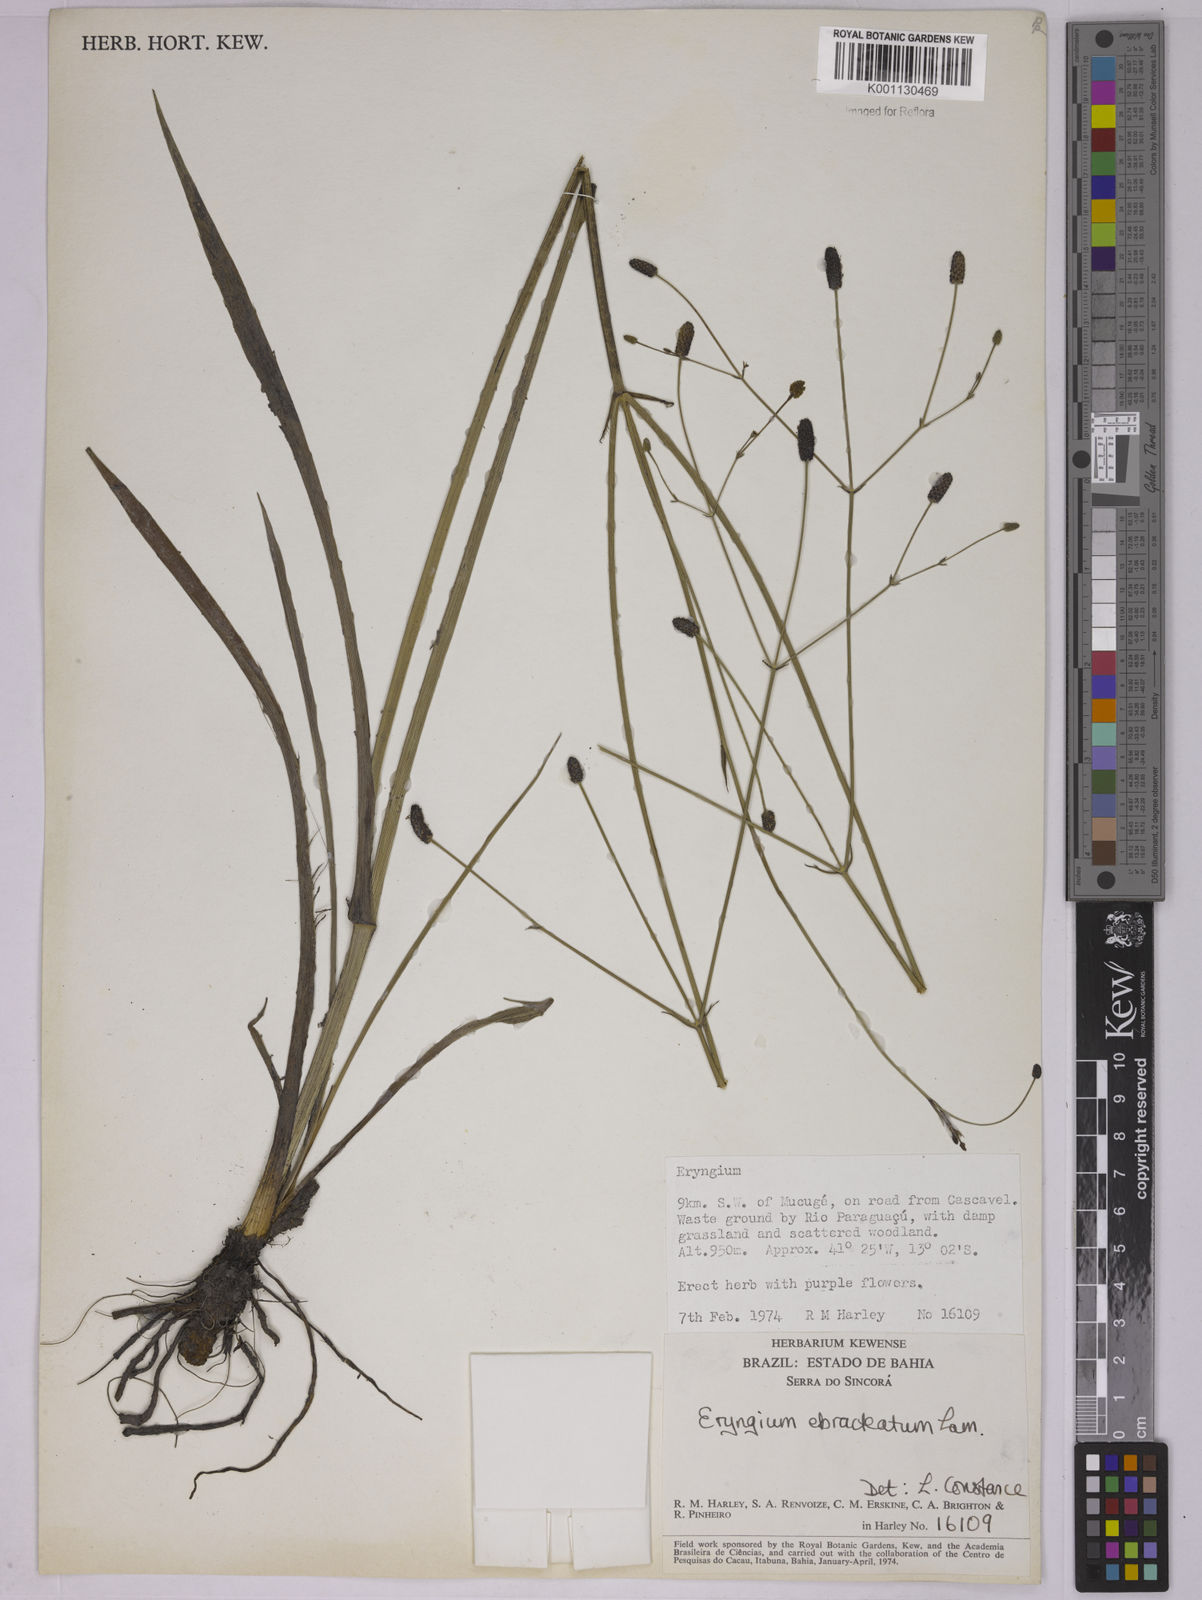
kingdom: Plantae
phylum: Tracheophyta
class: Magnoliopsida
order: Apiales
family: Apiaceae
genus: Eryngium
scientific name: Eryngium ebracteatum
